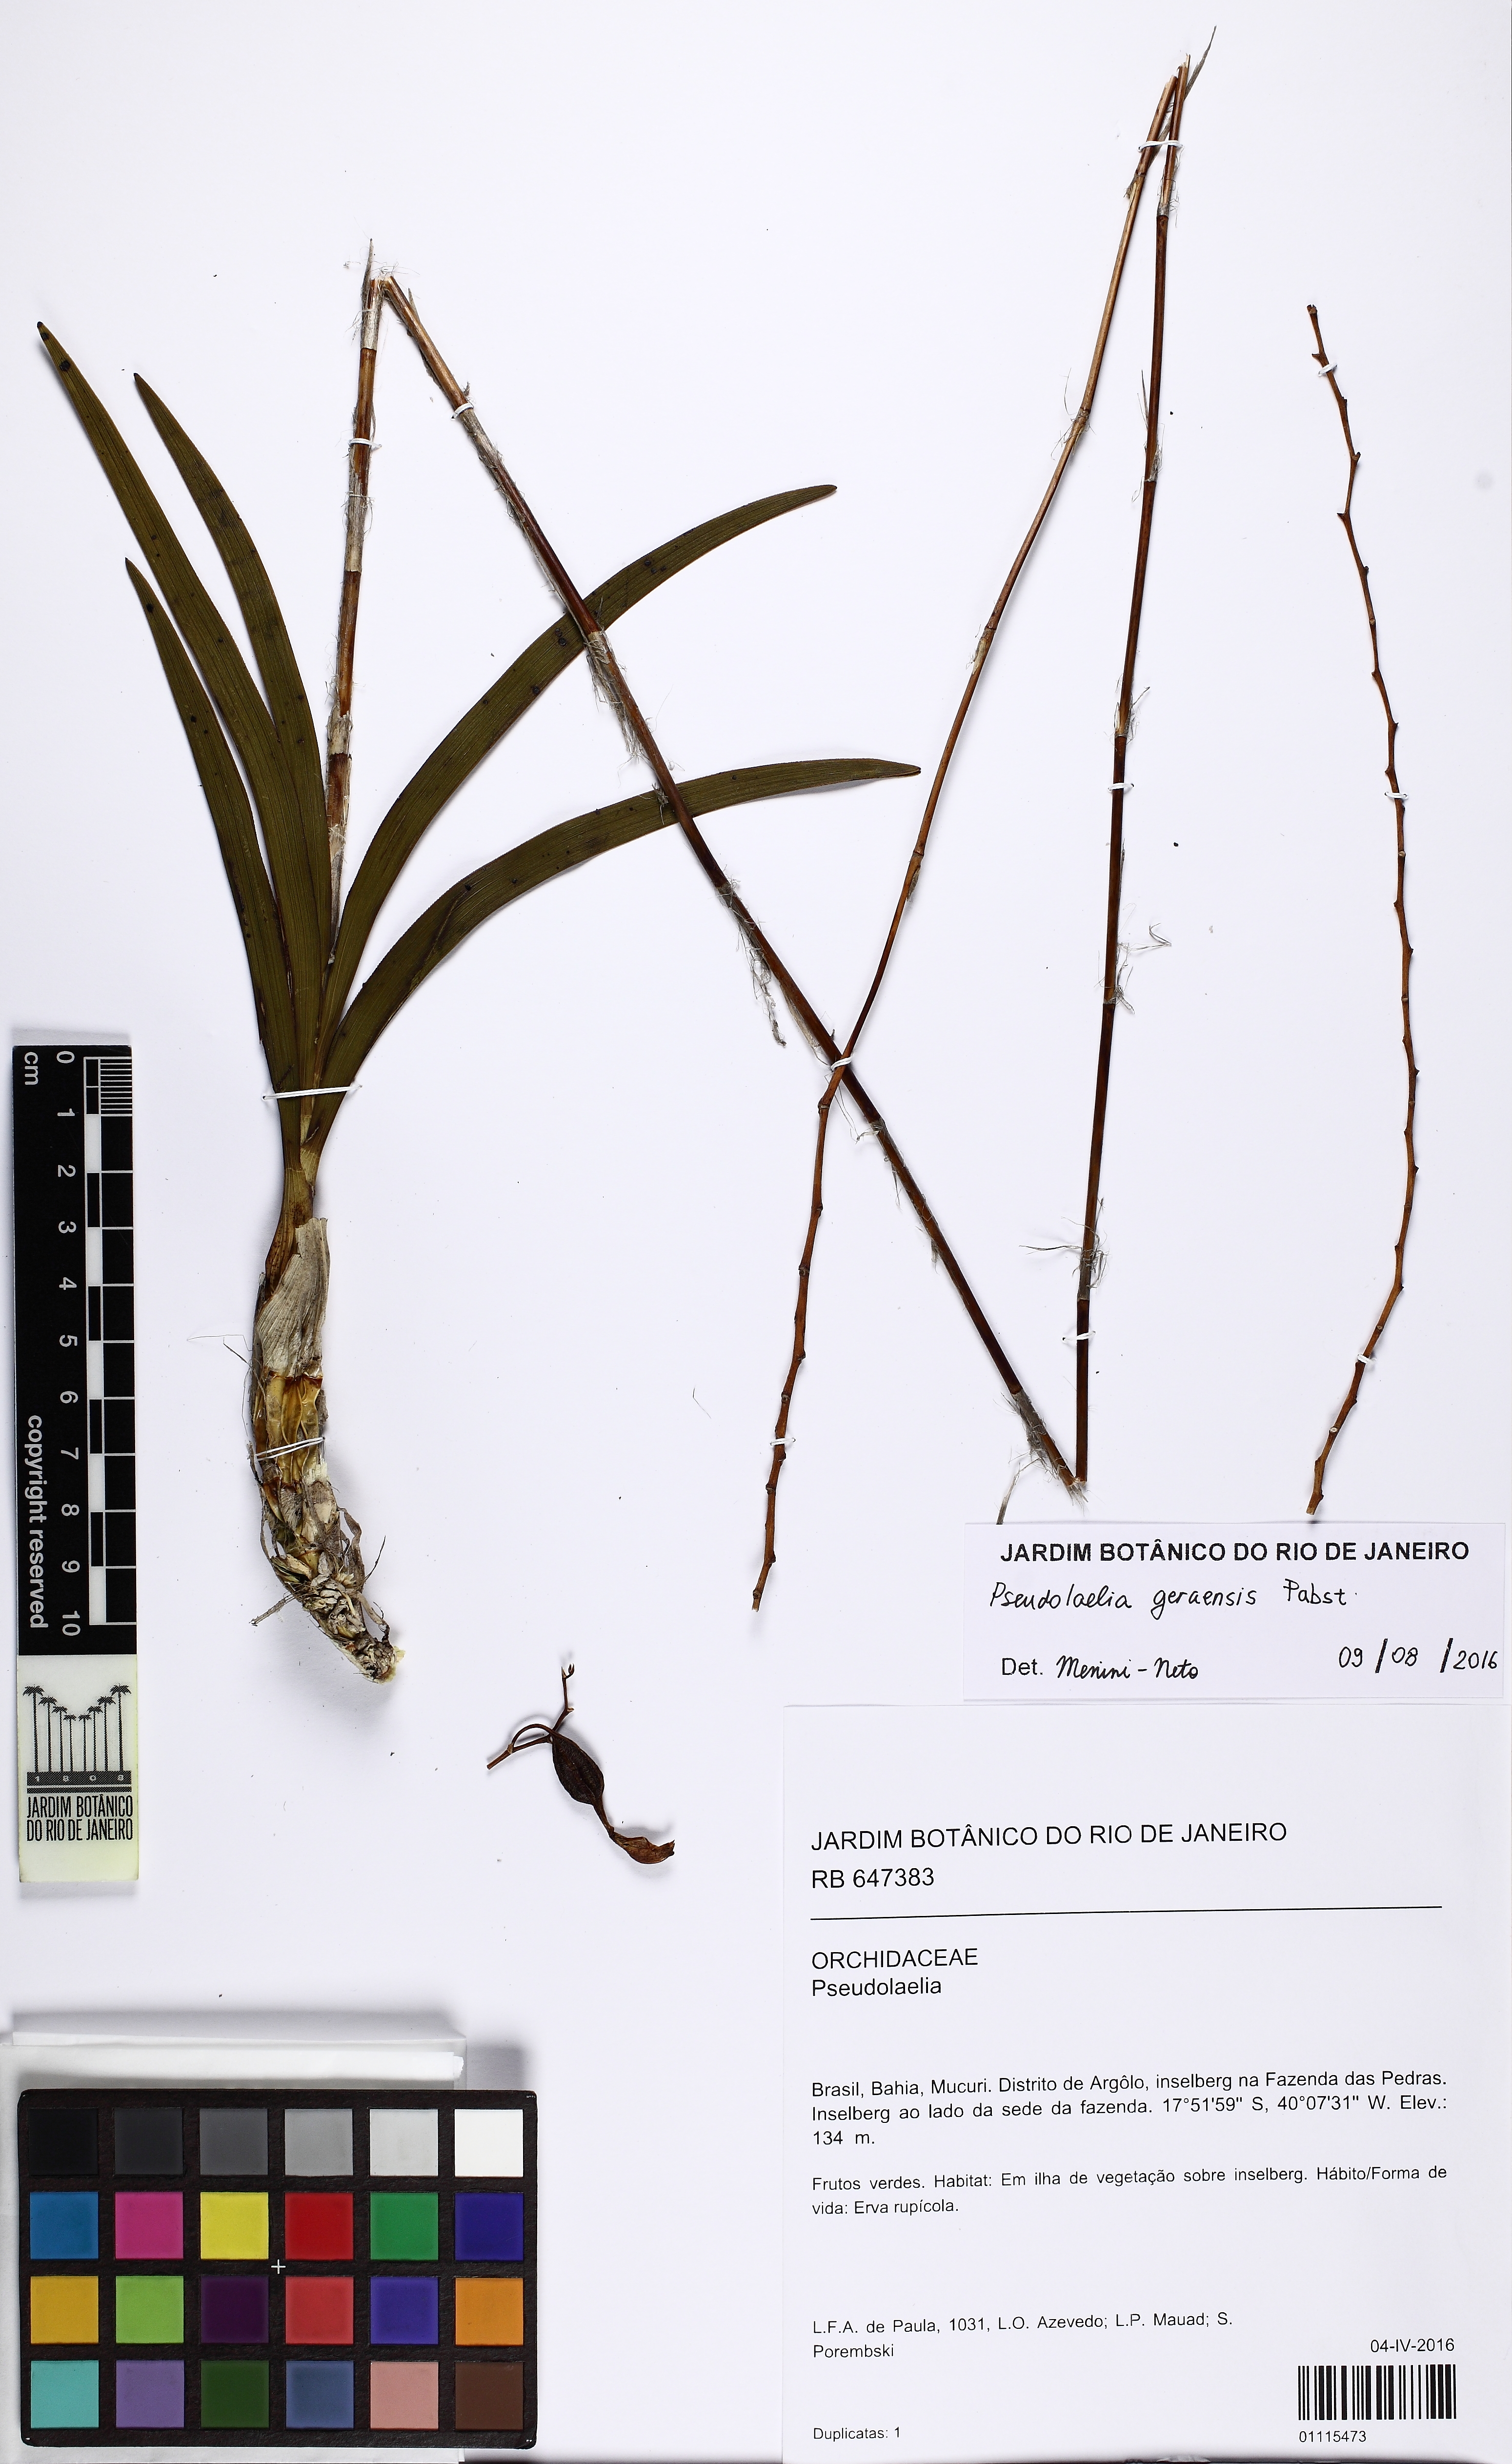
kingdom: Plantae
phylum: Tracheophyta
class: Liliopsida
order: Asparagales
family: Orchidaceae
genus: Pseudolaelia
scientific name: Pseudolaelia geraensis
